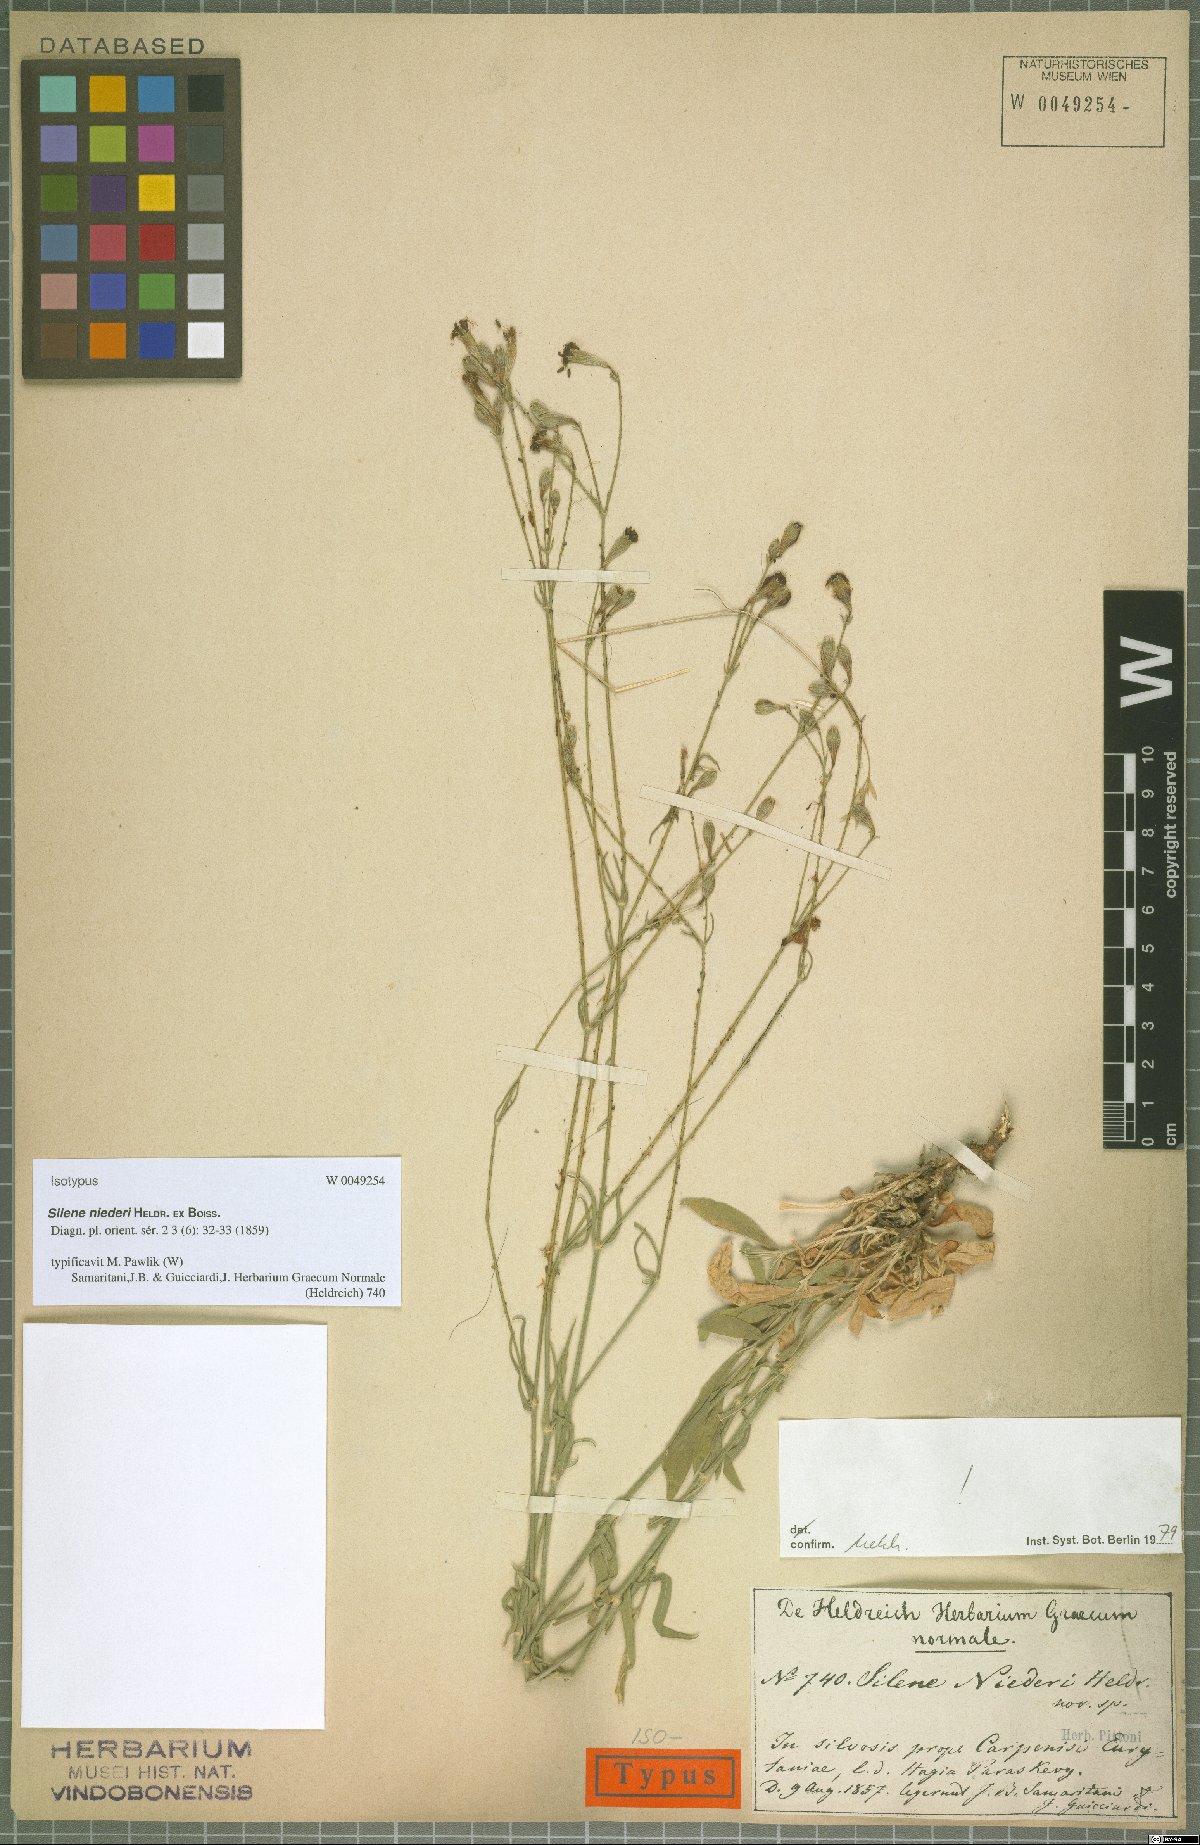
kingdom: Plantae
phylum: Tracheophyta
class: Magnoliopsida
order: Caryophyllales
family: Caryophyllaceae
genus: Silene
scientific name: Silene niederi
